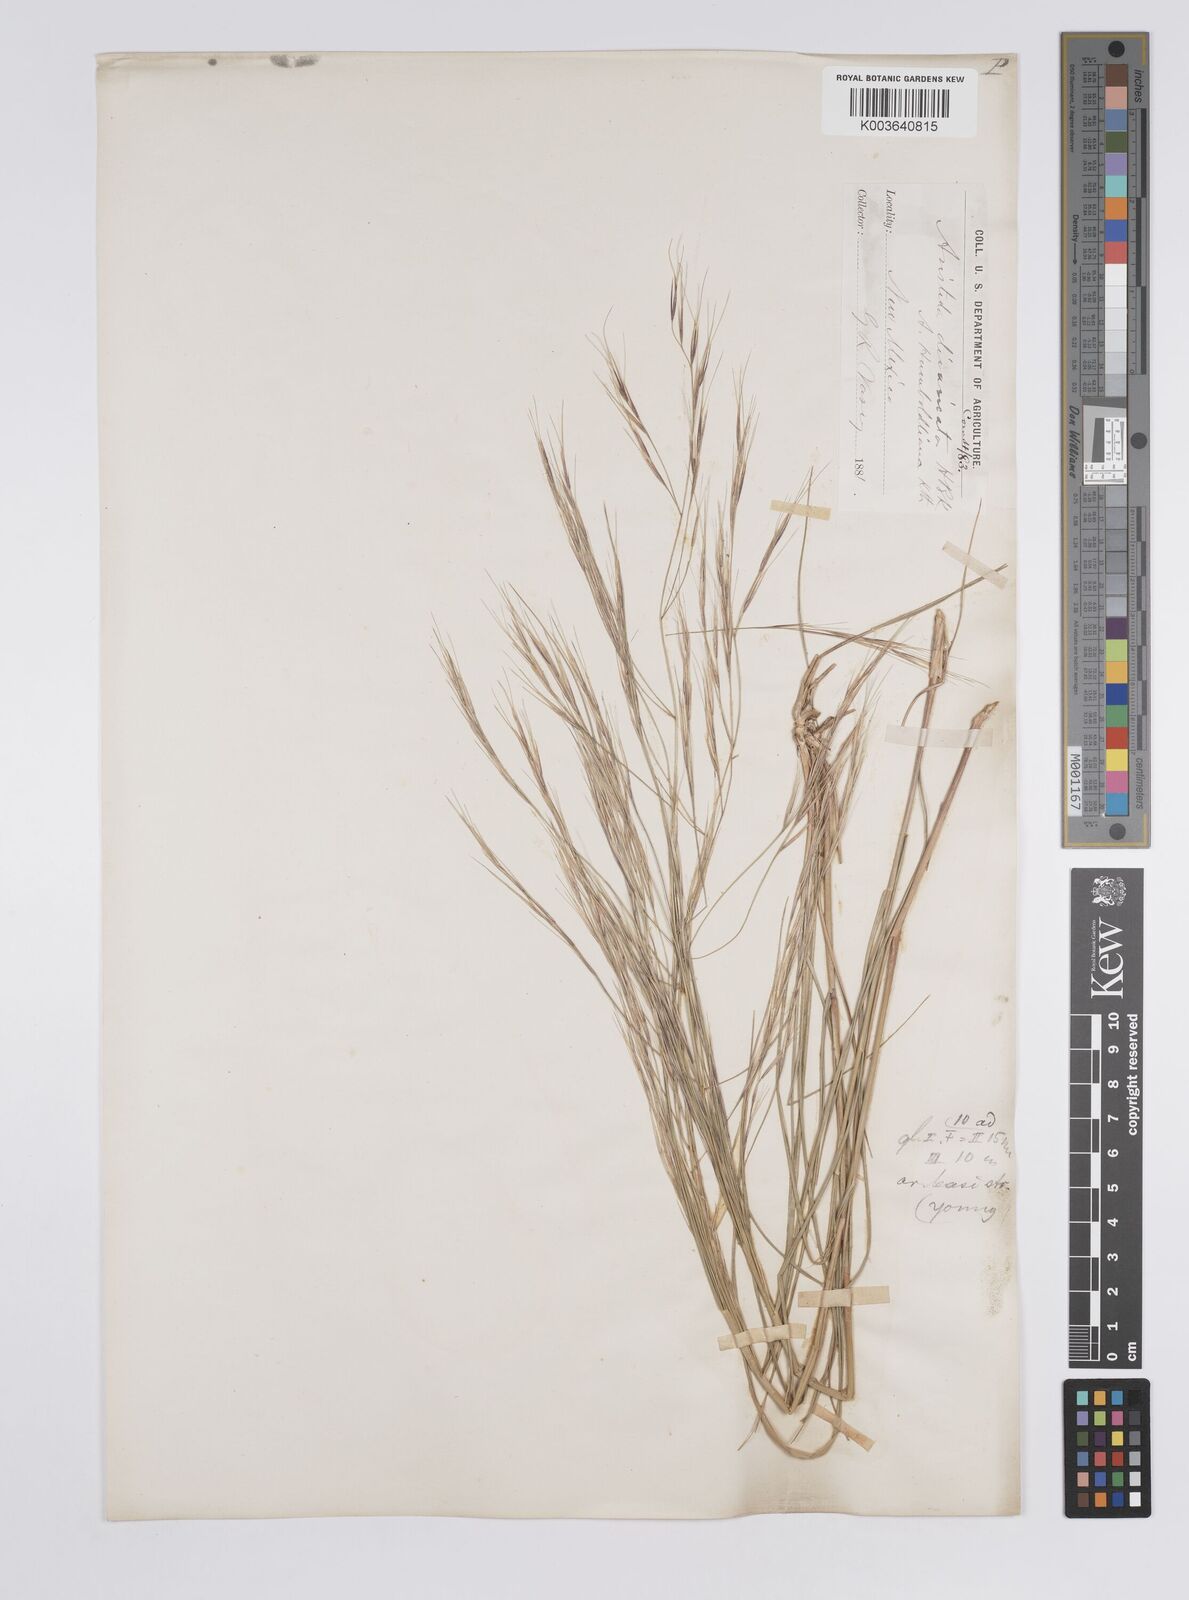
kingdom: Plantae
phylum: Tracheophyta
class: Liliopsida
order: Poales
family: Poaceae
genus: Aristida
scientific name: Aristida hamulosa
